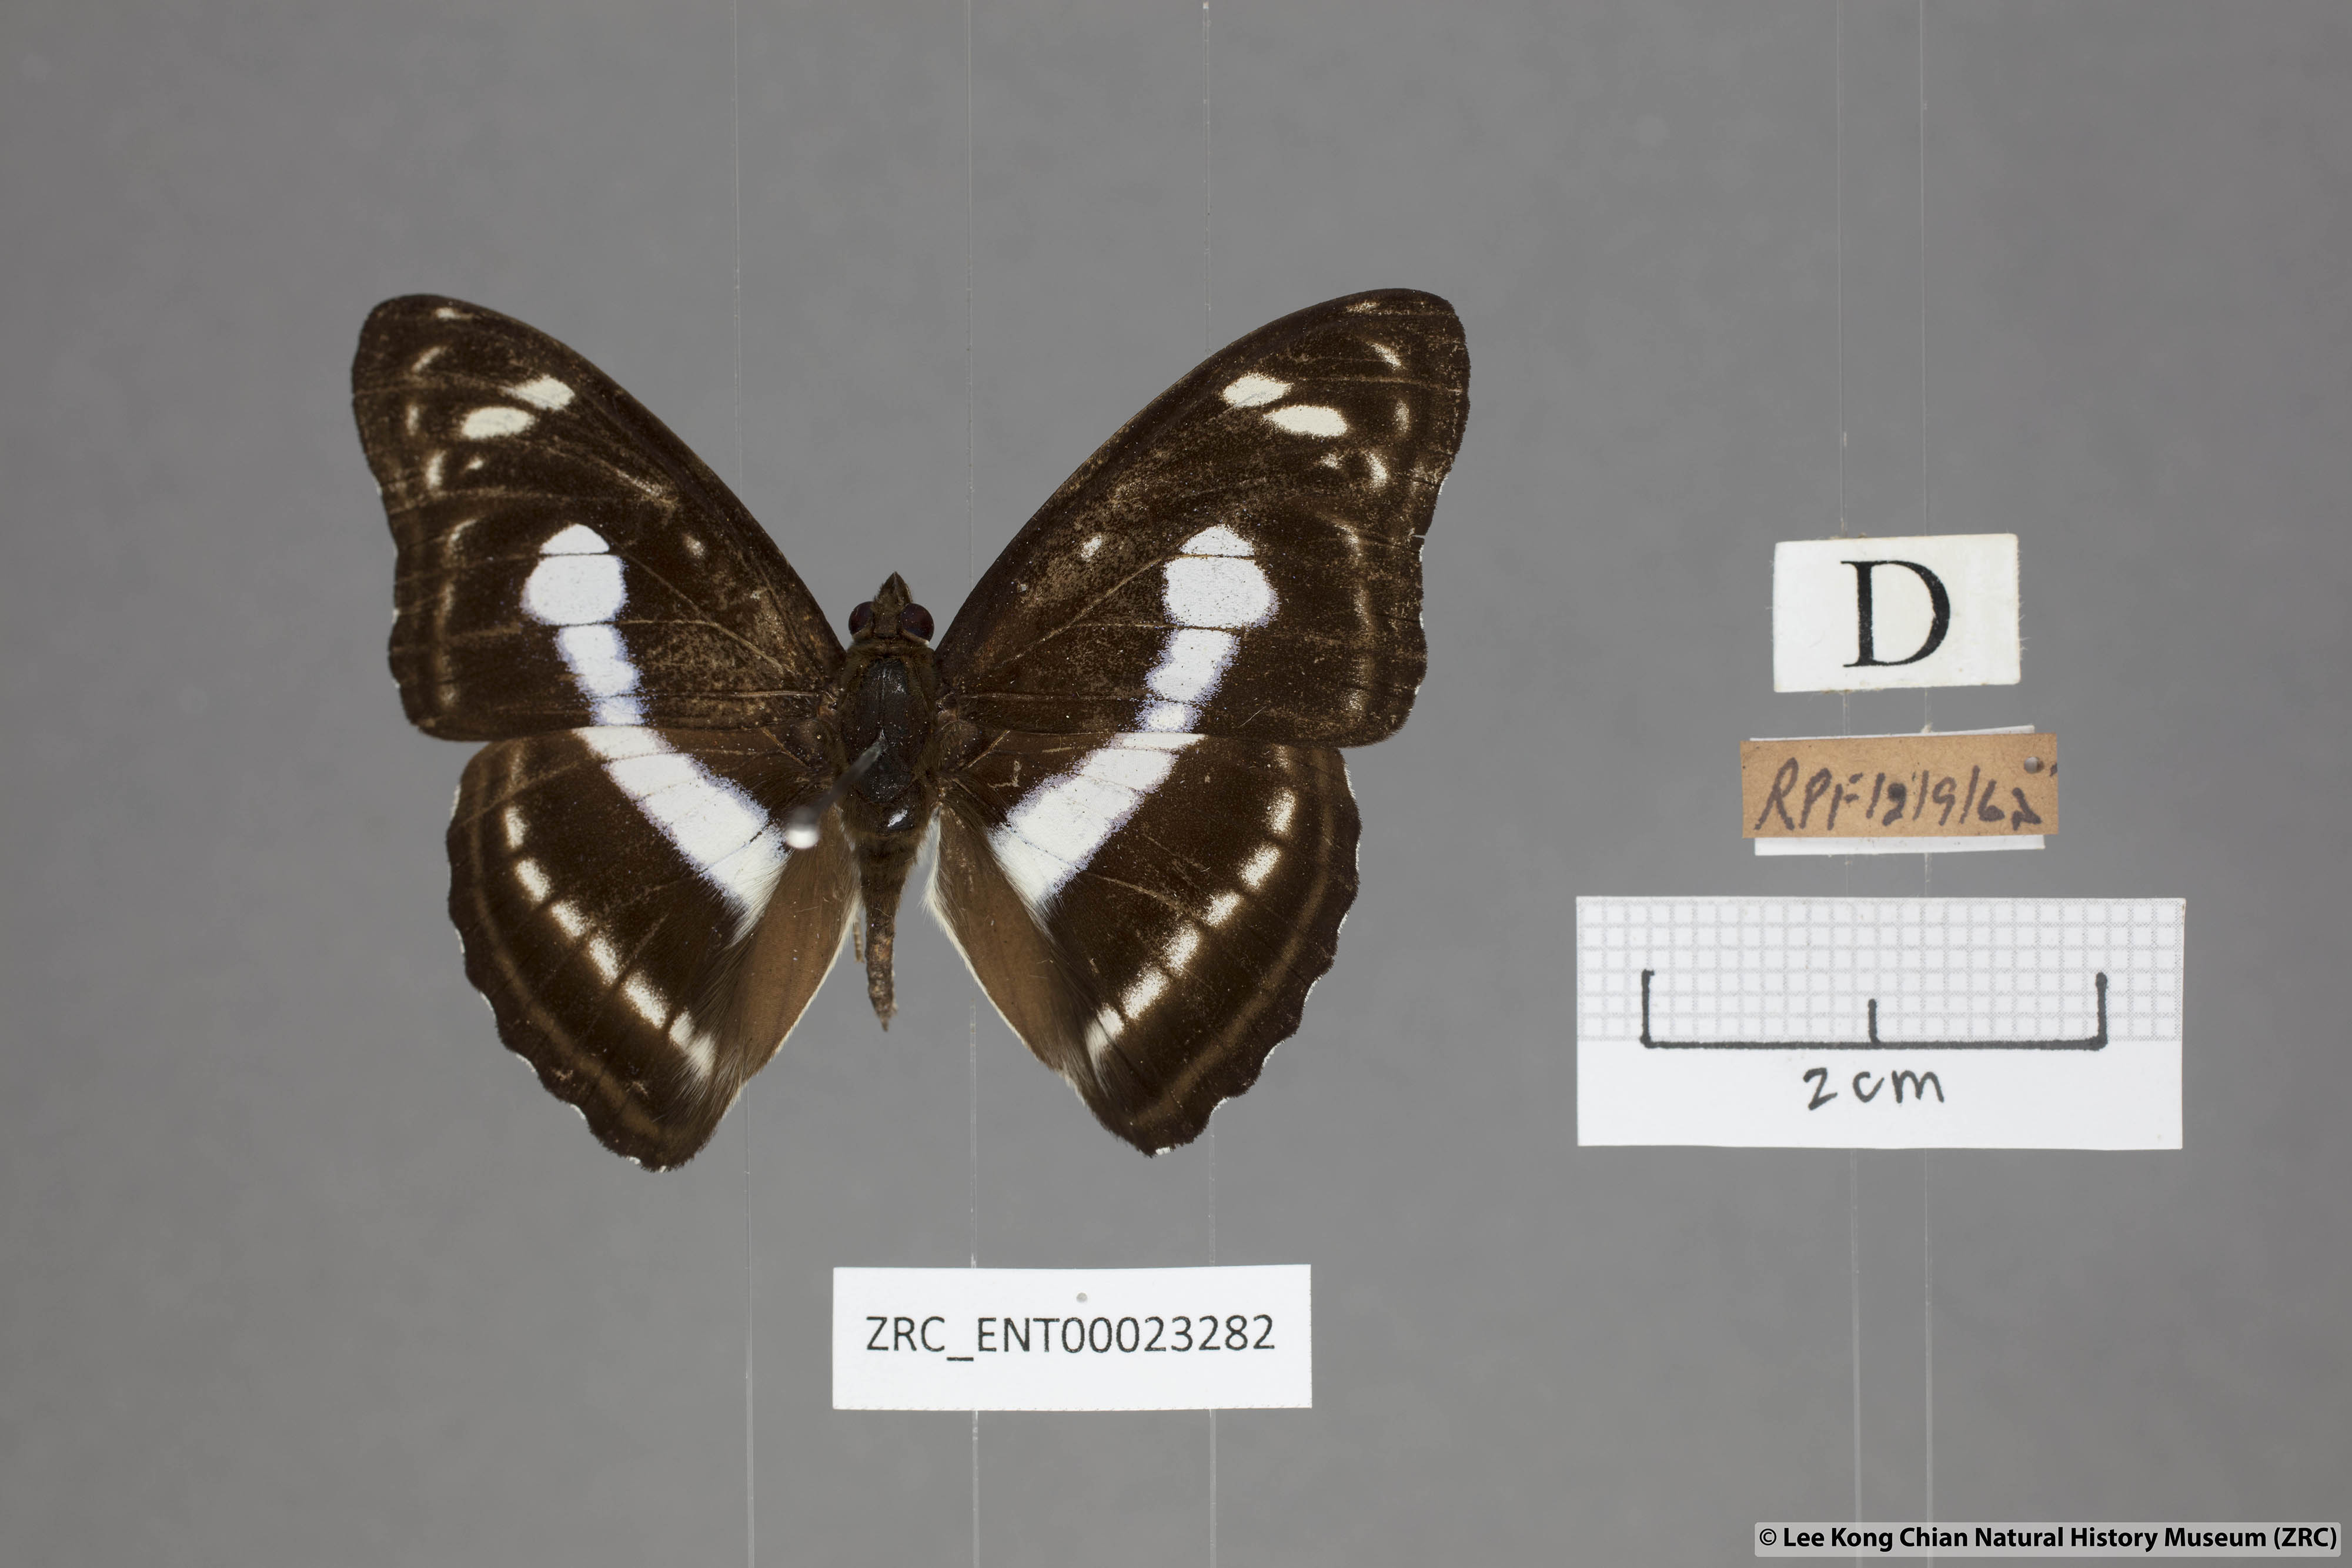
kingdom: Animalia
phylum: Arthropoda
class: Insecta
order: Lepidoptera
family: Nymphalidae
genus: Parathyma
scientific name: Parathyma selenophora
